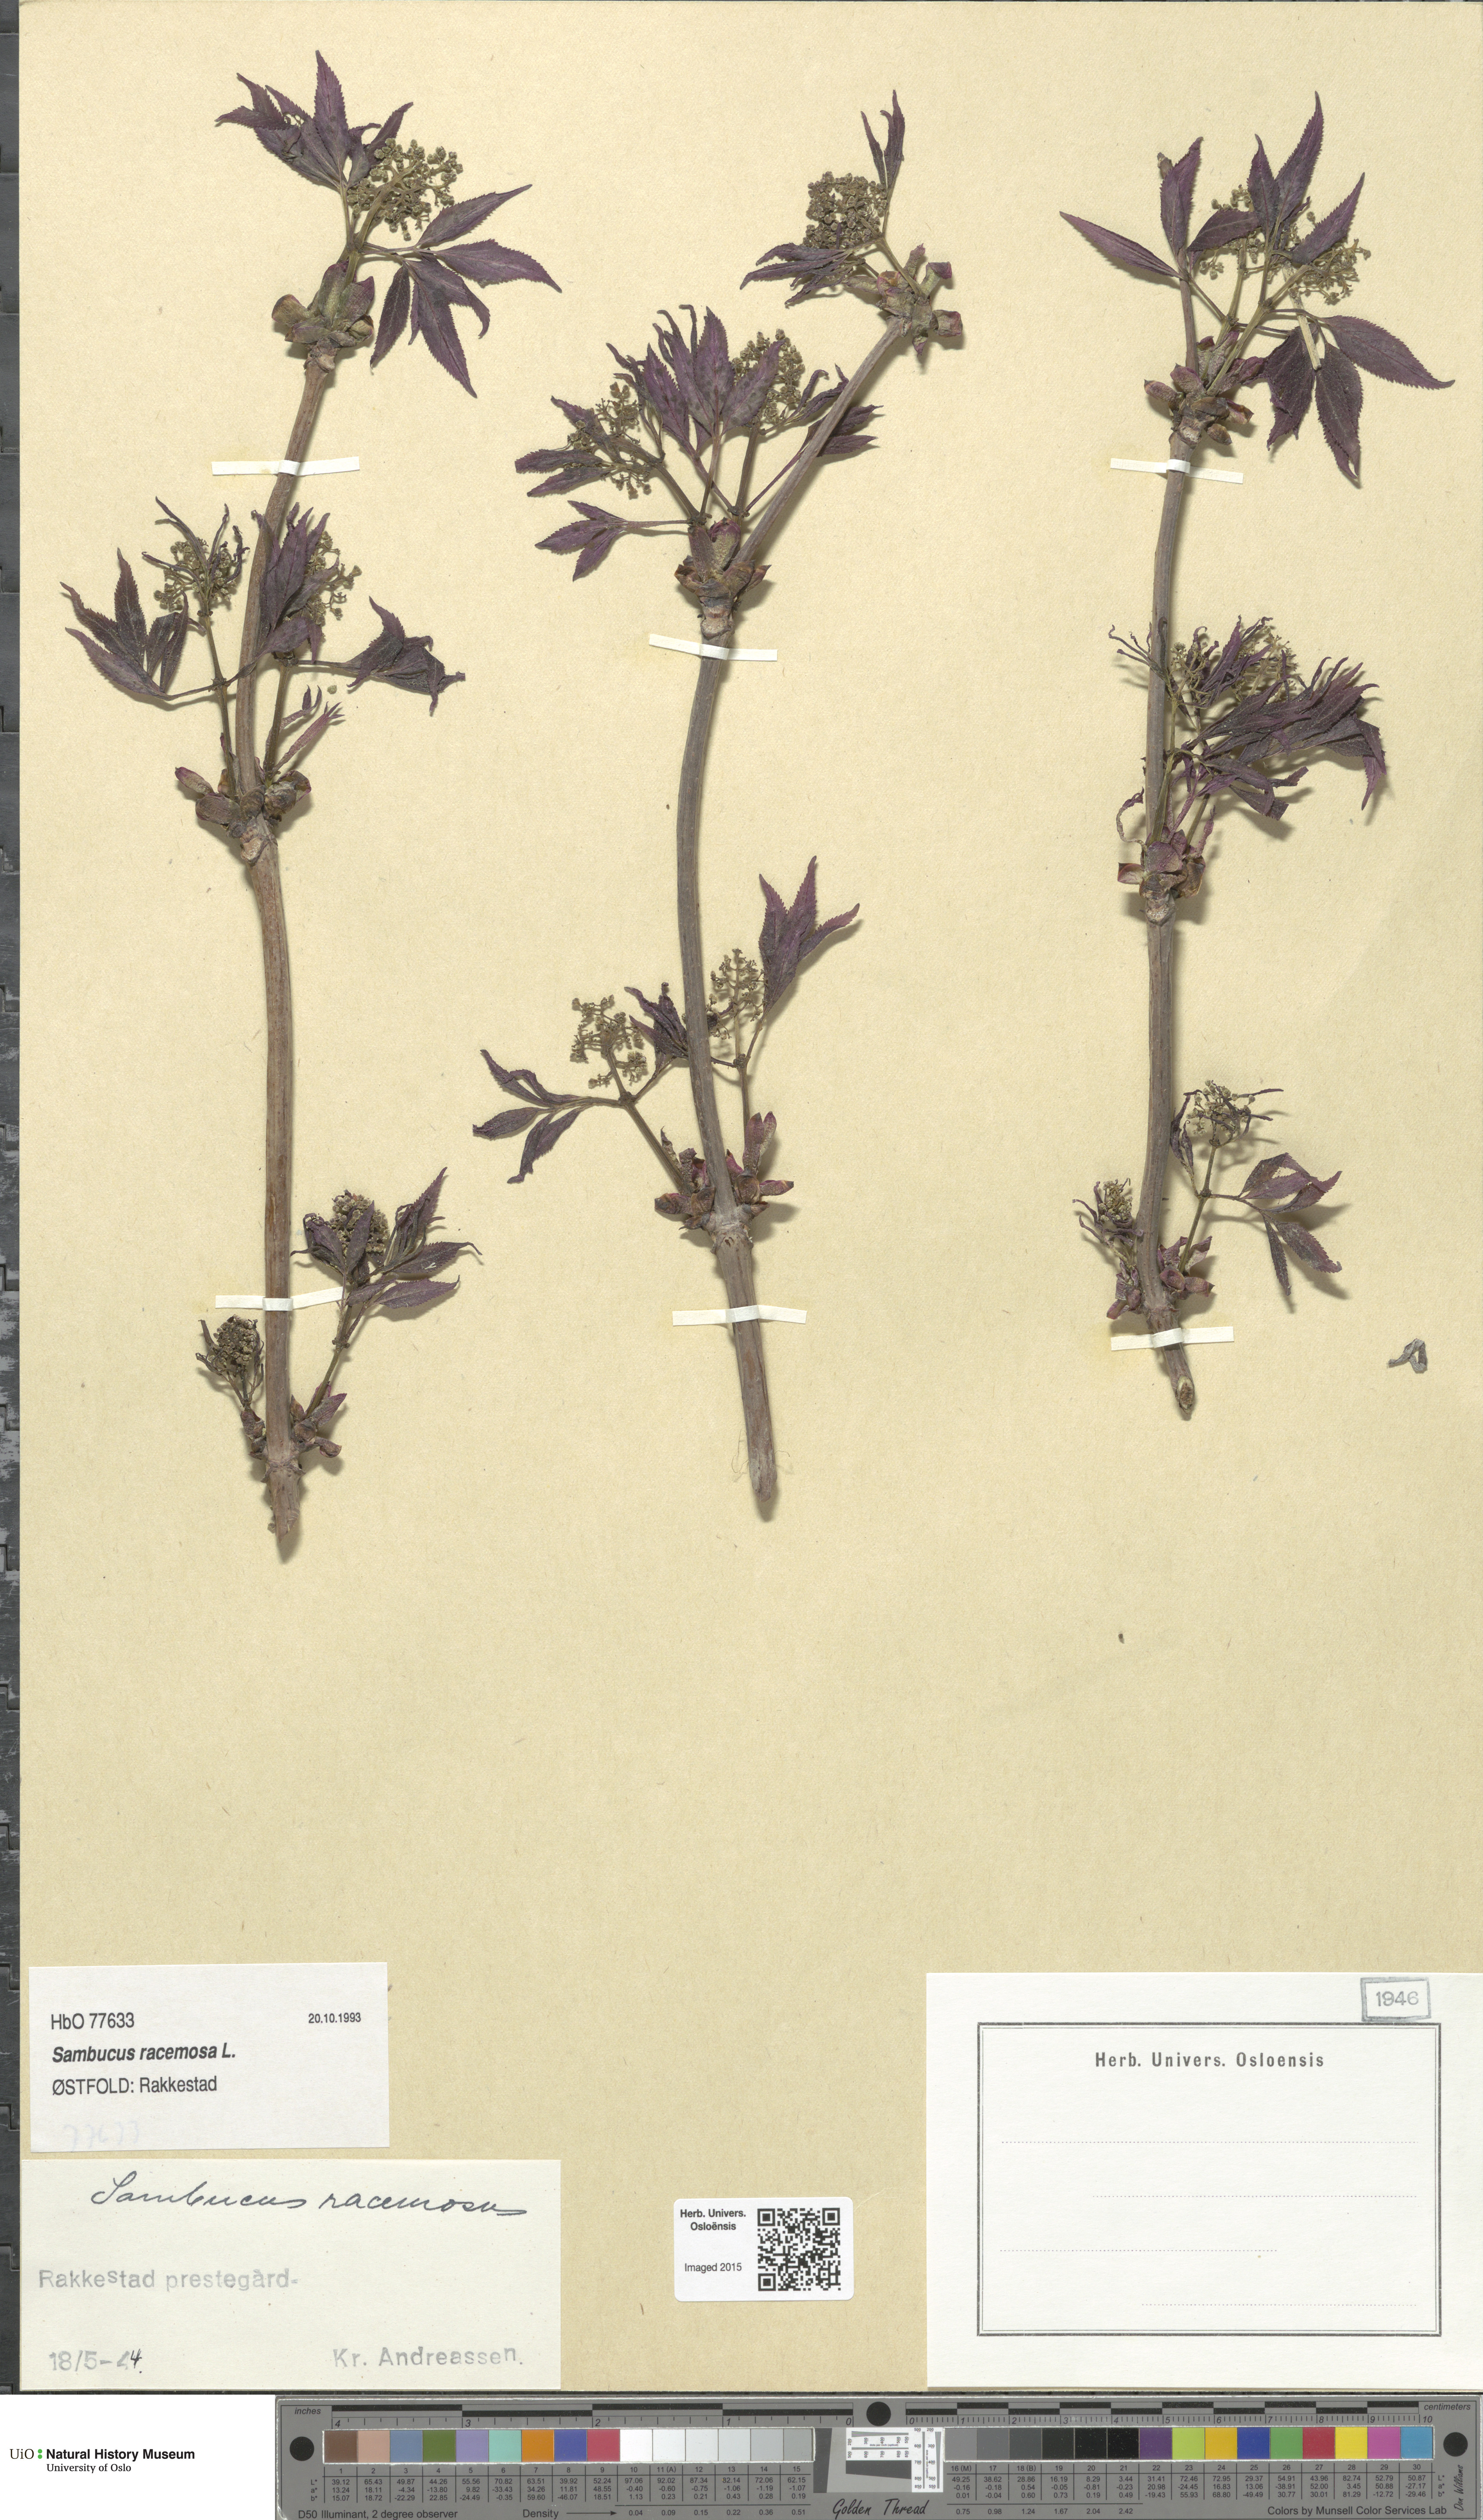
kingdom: Plantae
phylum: Tracheophyta
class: Magnoliopsida
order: Dipsacales
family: Viburnaceae
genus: Sambucus
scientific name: Sambucus racemosa
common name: Red-berried elder
